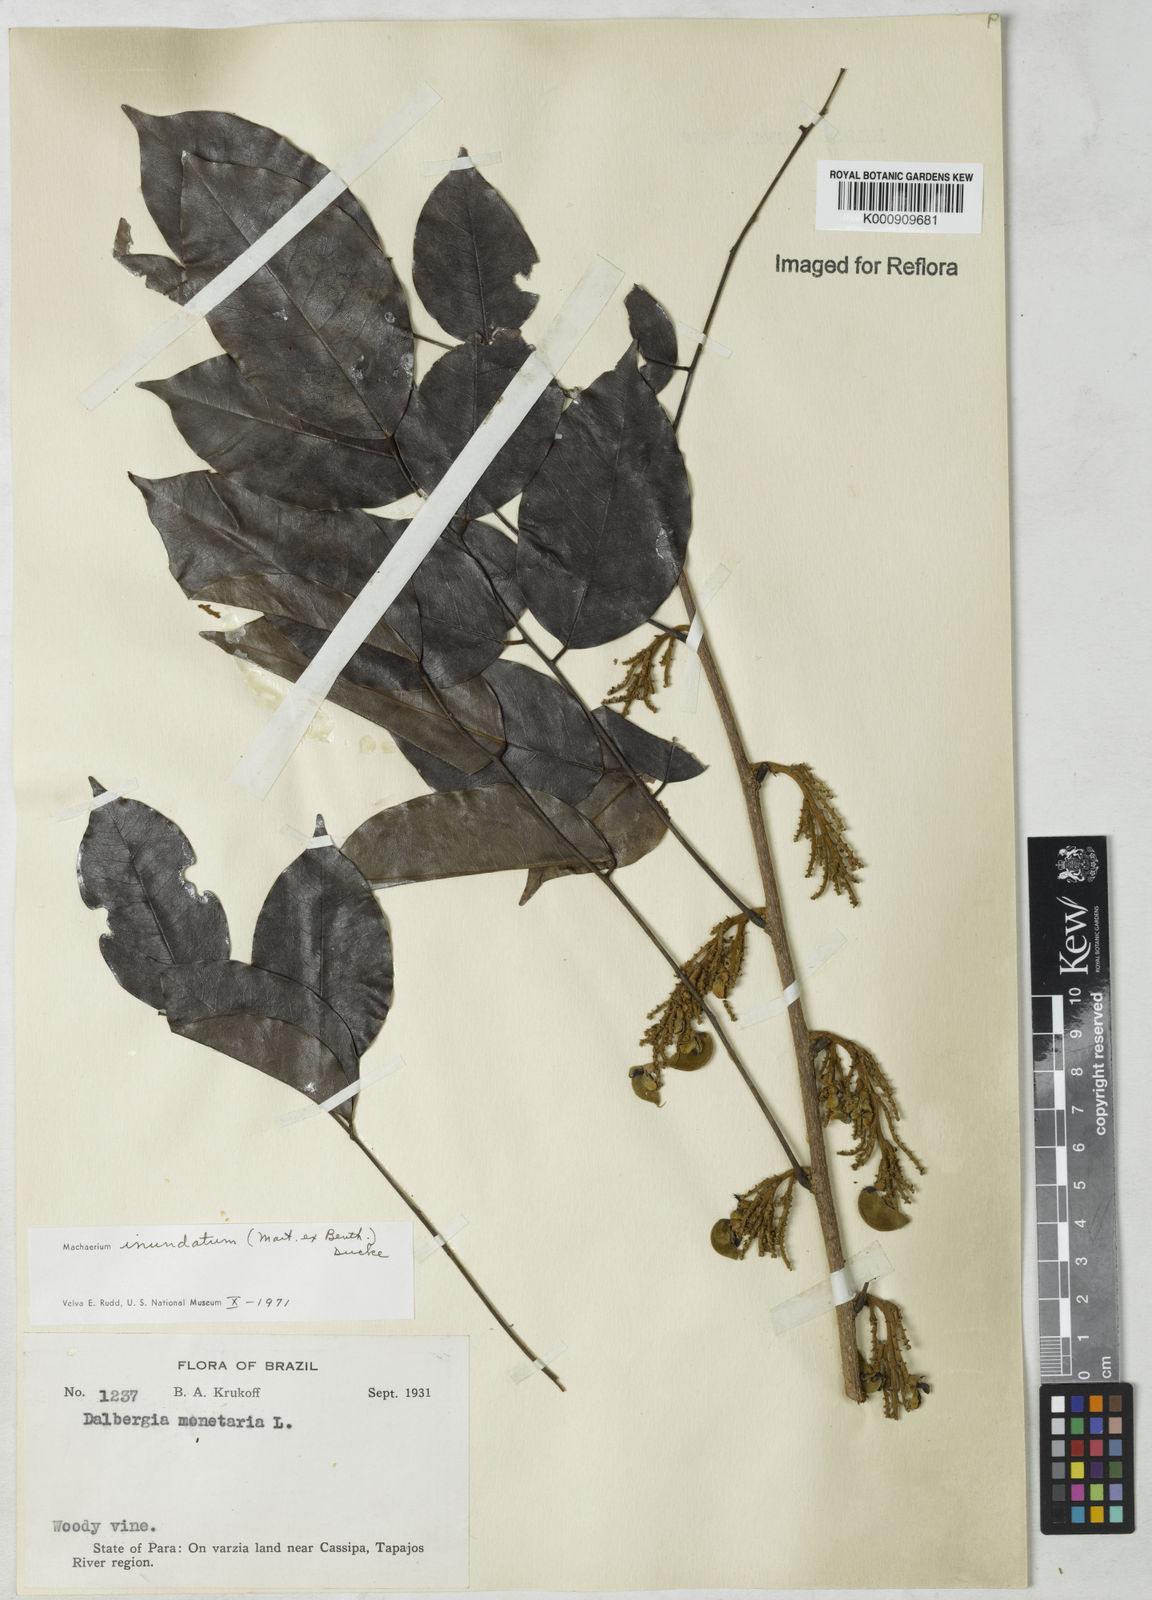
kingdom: Plantae
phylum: Tracheophyta
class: Magnoliopsida
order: Fabales
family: Fabaceae
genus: Machaerium
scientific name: Machaerium inundatum
